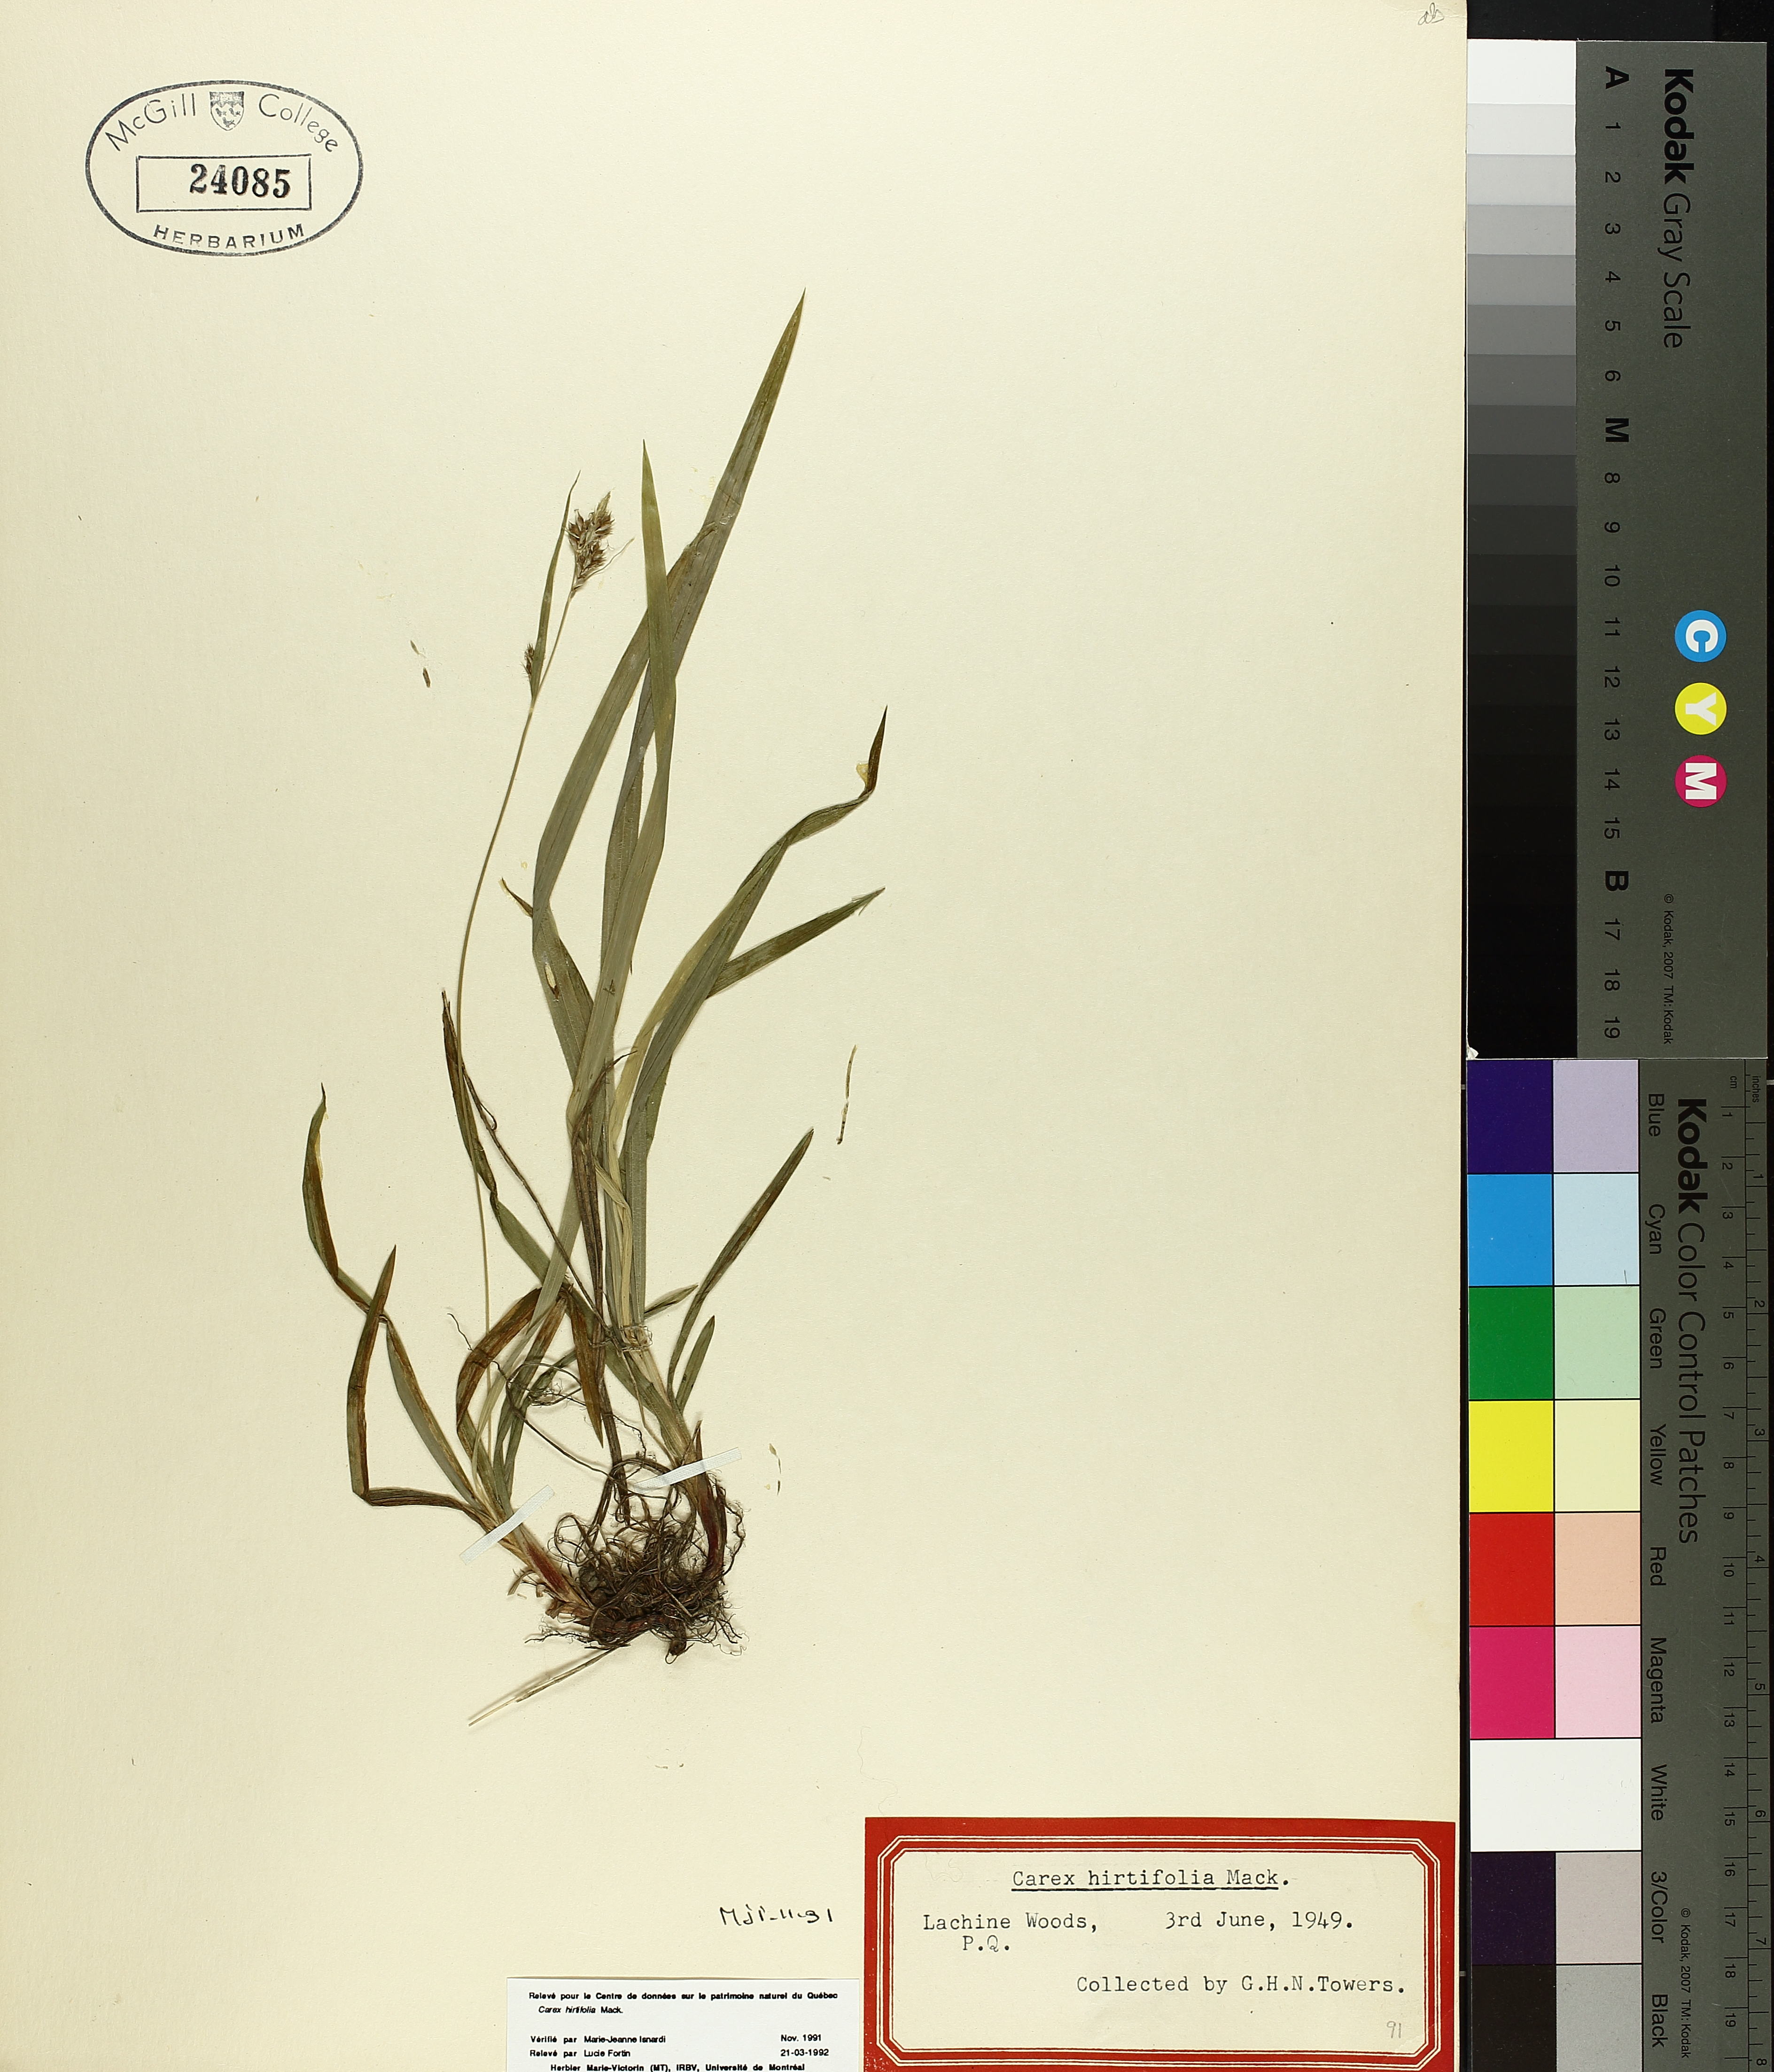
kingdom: Plantae
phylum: Tracheophyta
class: Liliopsida
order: Poales
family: Cyperaceae
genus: Carex
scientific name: Carex hirtifolia
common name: Hairy sedge
